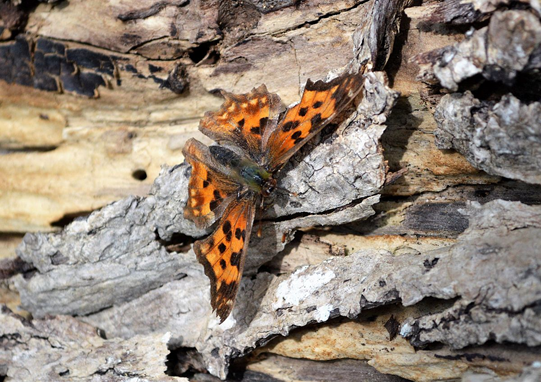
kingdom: Animalia
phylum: Arthropoda
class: Insecta
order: Lepidoptera
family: Nymphalidae
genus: Polygonia
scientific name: Polygonia satyrus
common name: Satyr Comma
